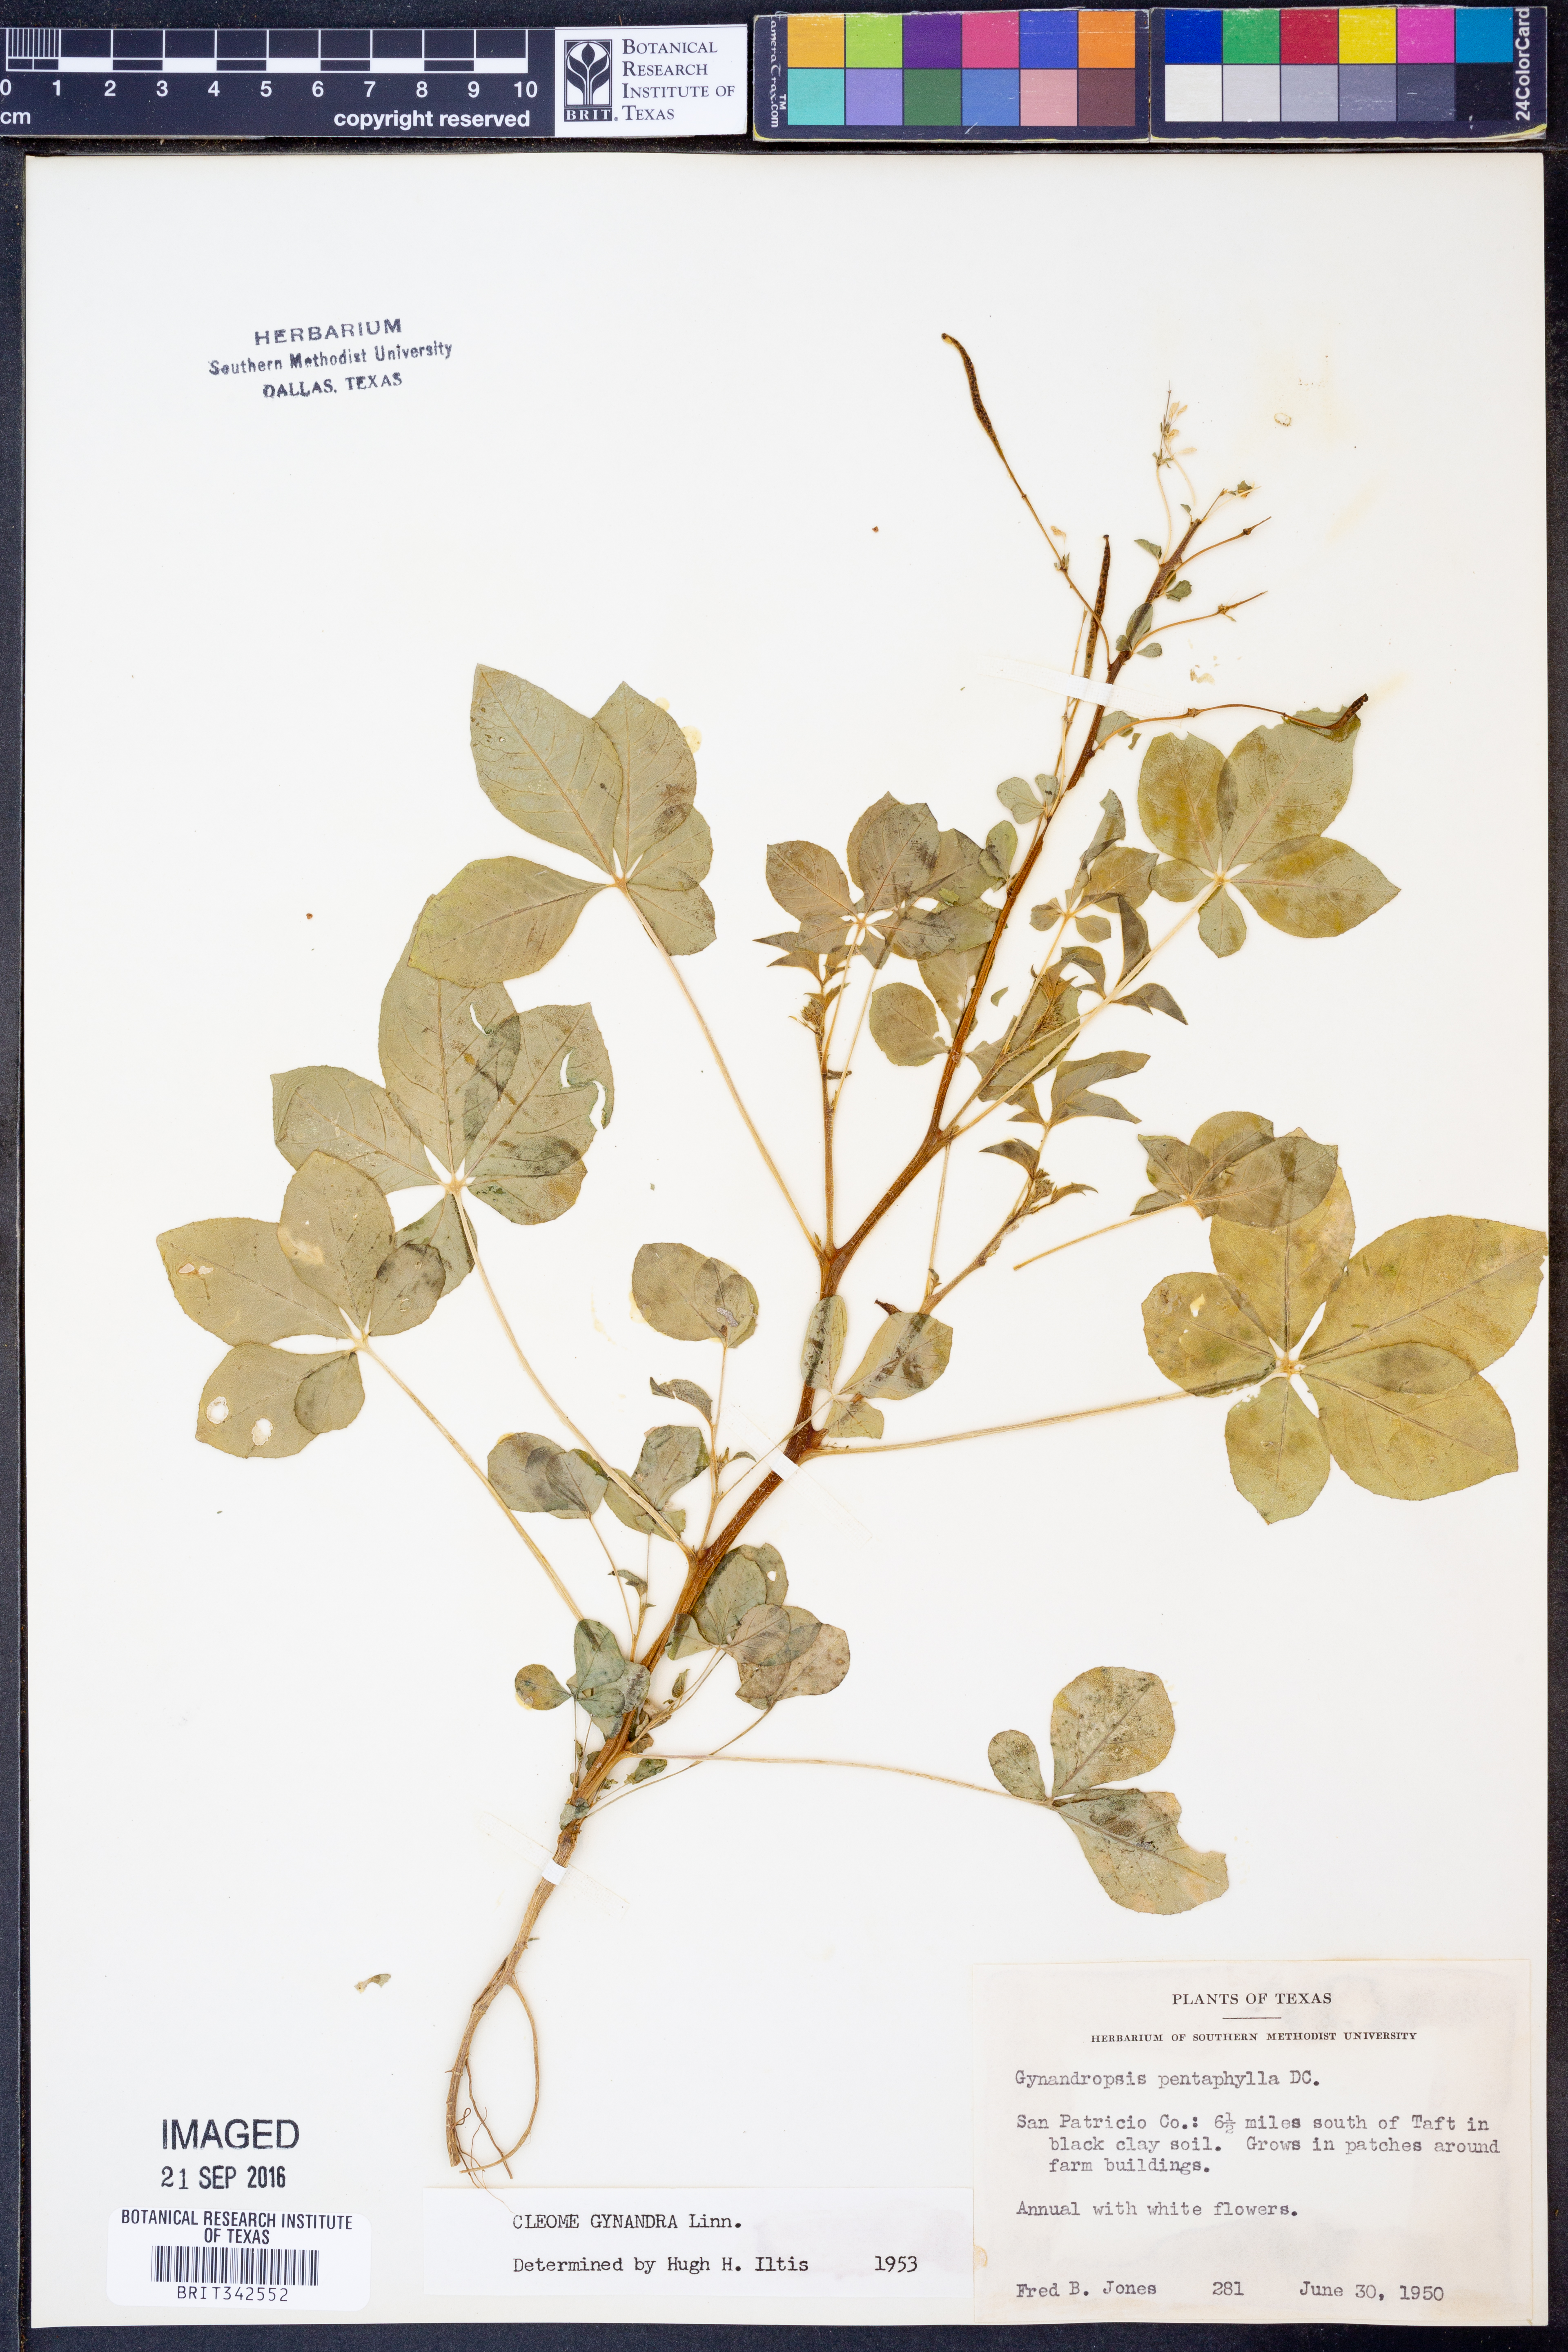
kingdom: Plantae
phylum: Tracheophyta
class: Magnoliopsida
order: Brassicales
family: Cleomaceae
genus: Gynandropsis
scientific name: Gynandropsis gynandra
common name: Spiderwisp
